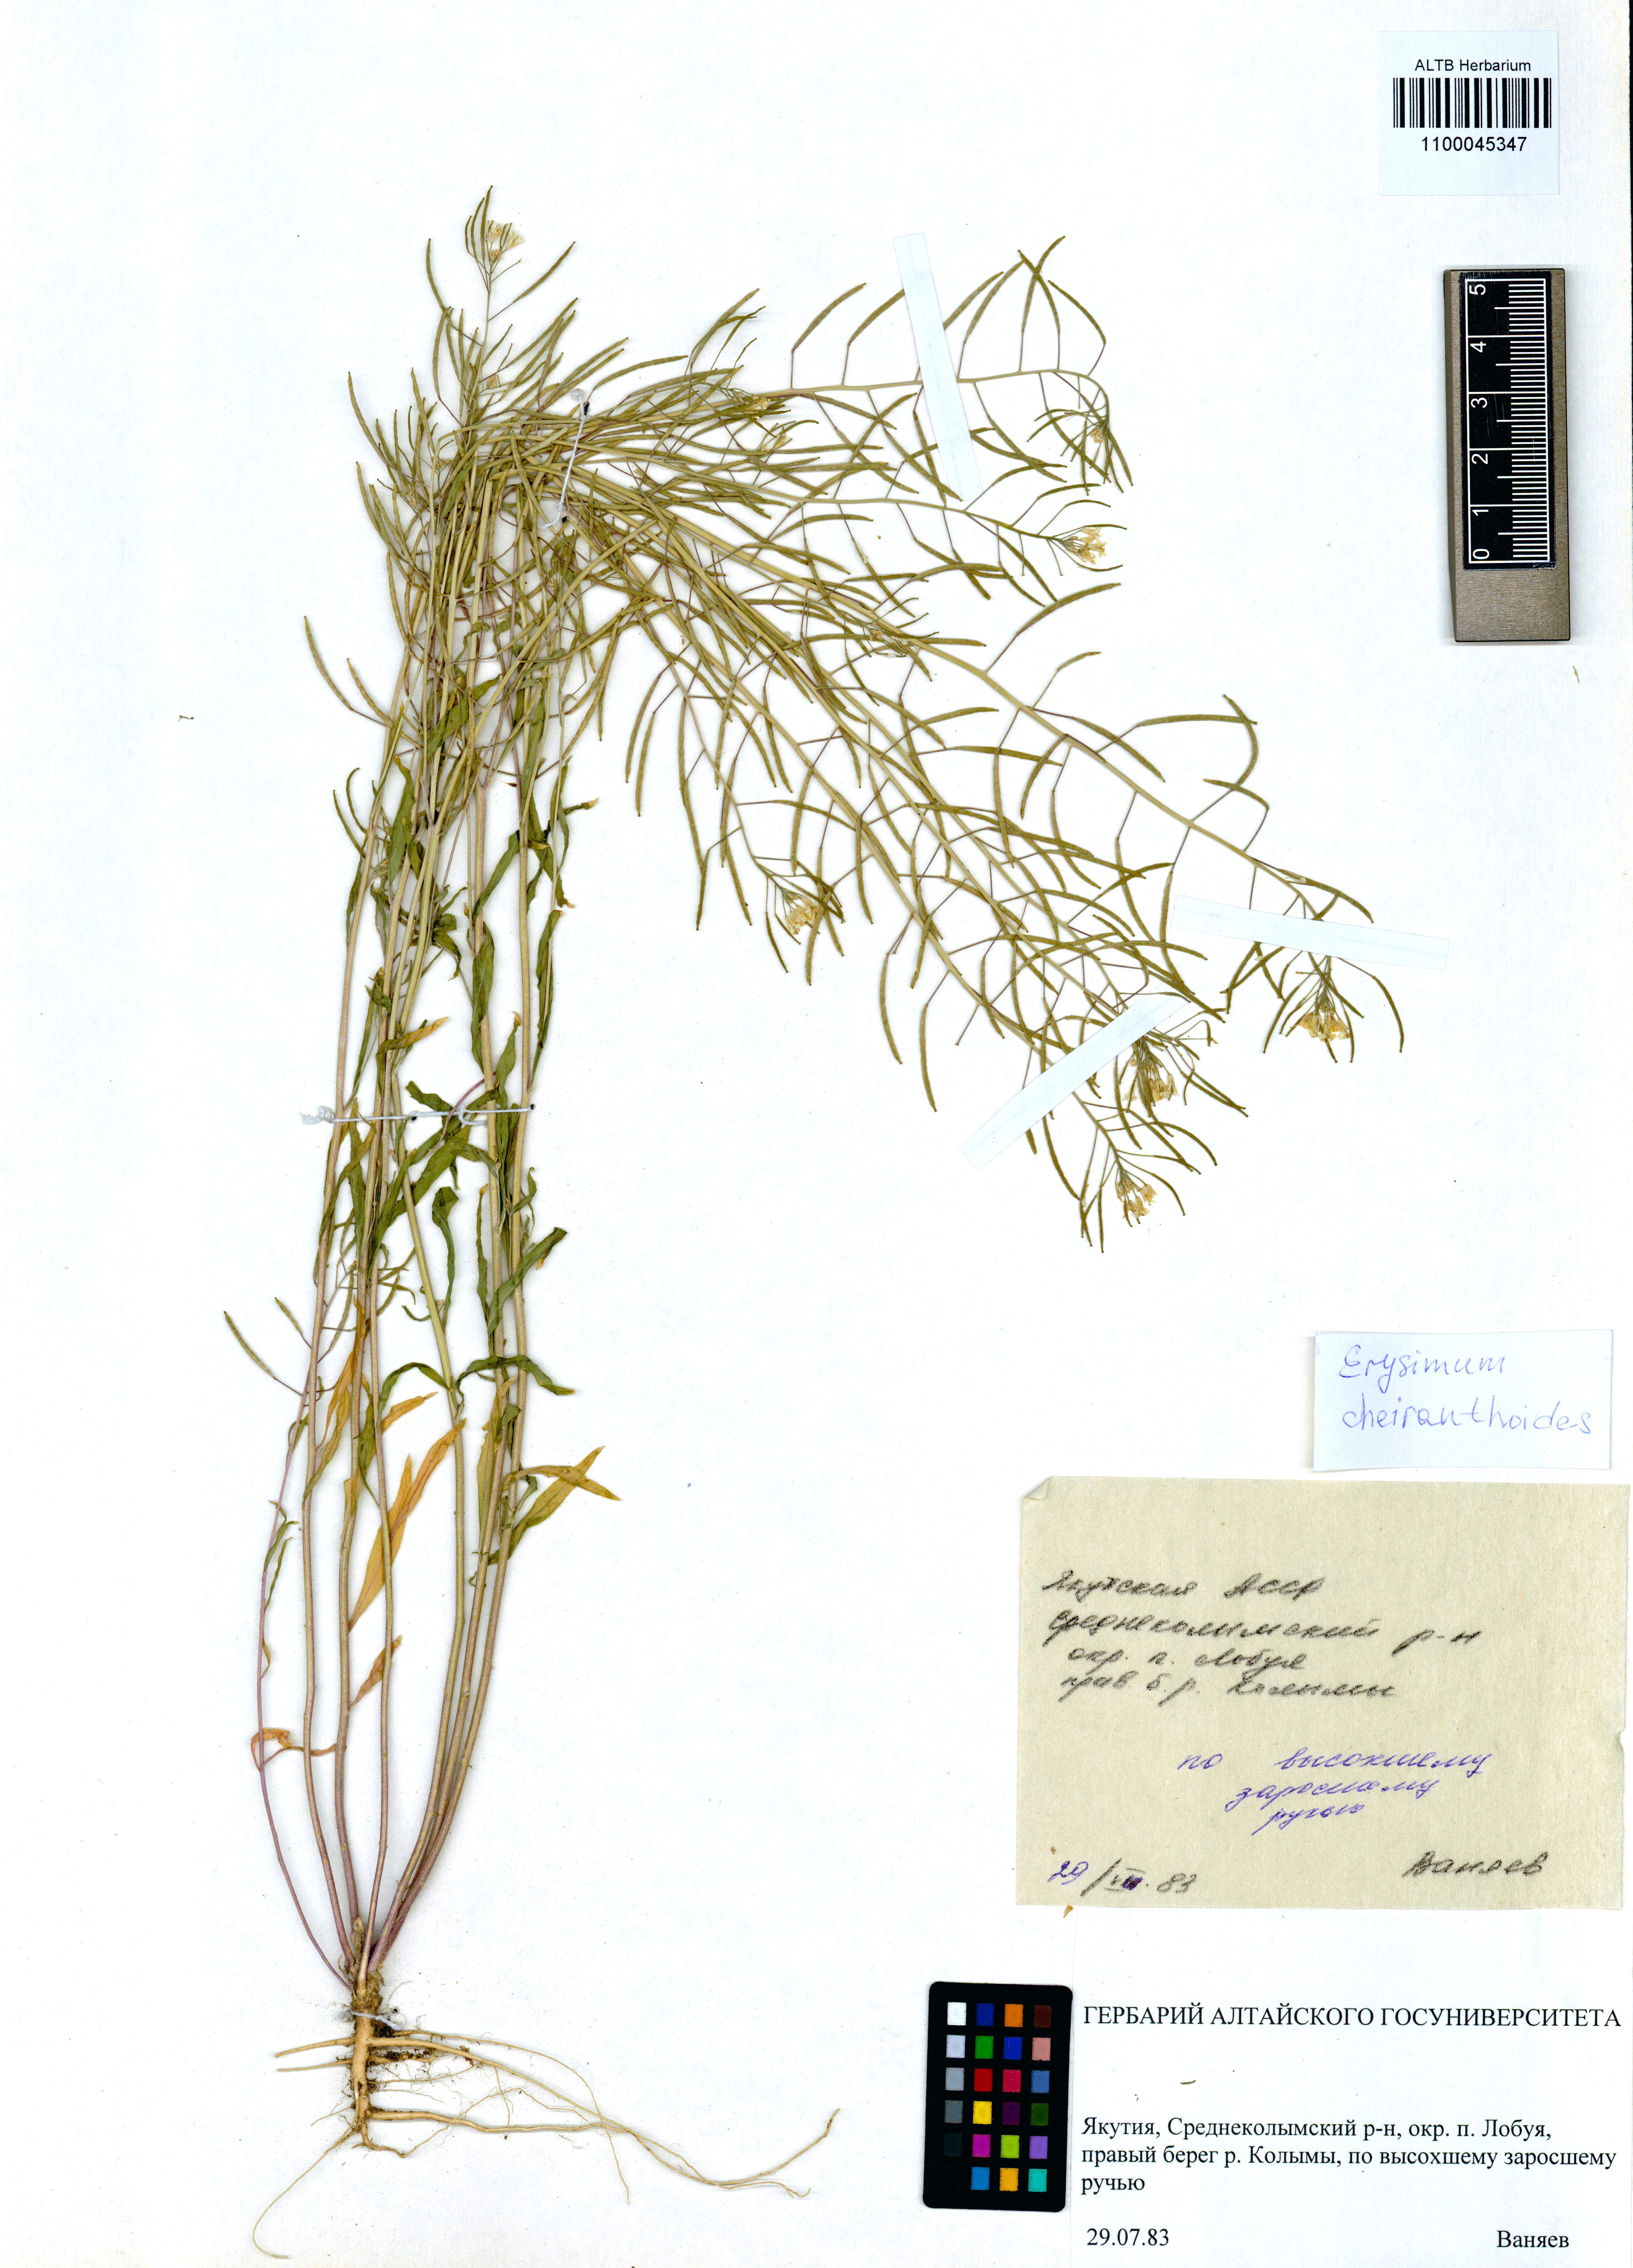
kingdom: Plantae
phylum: Tracheophyta
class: Magnoliopsida
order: Brassicales
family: Brassicaceae
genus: Erysimum
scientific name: Erysimum cheiranthoides
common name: Treacle mustard
